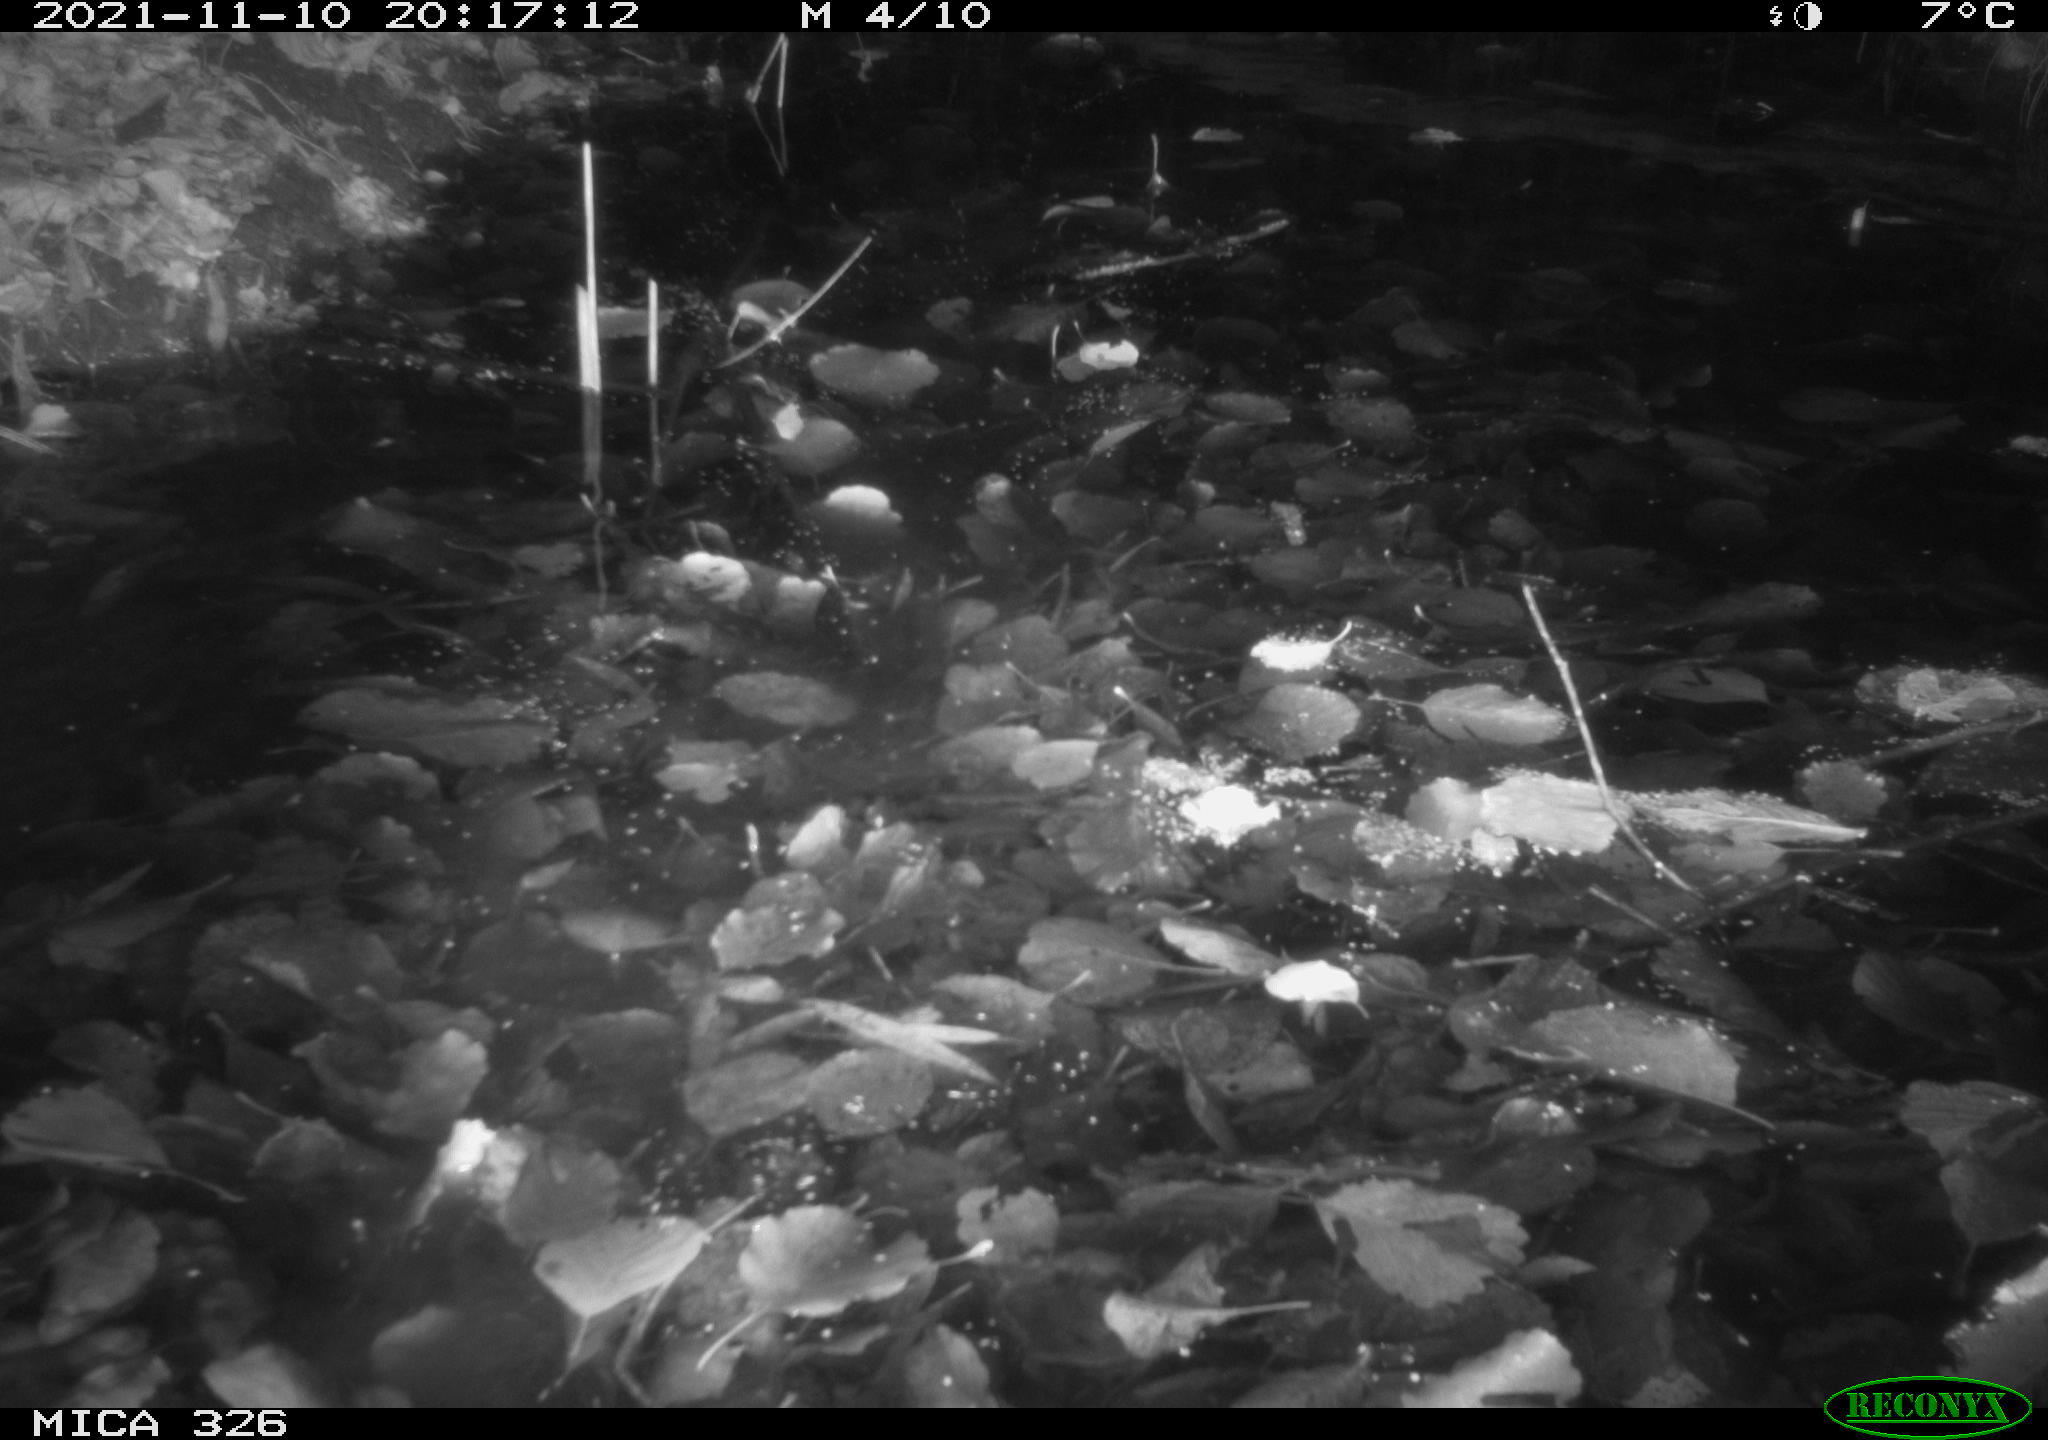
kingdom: Animalia
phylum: Chordata
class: Mammalia
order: Rodentia
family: Myocastoridae
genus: Myocastor
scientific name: Myocastor coypus
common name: Coypu
